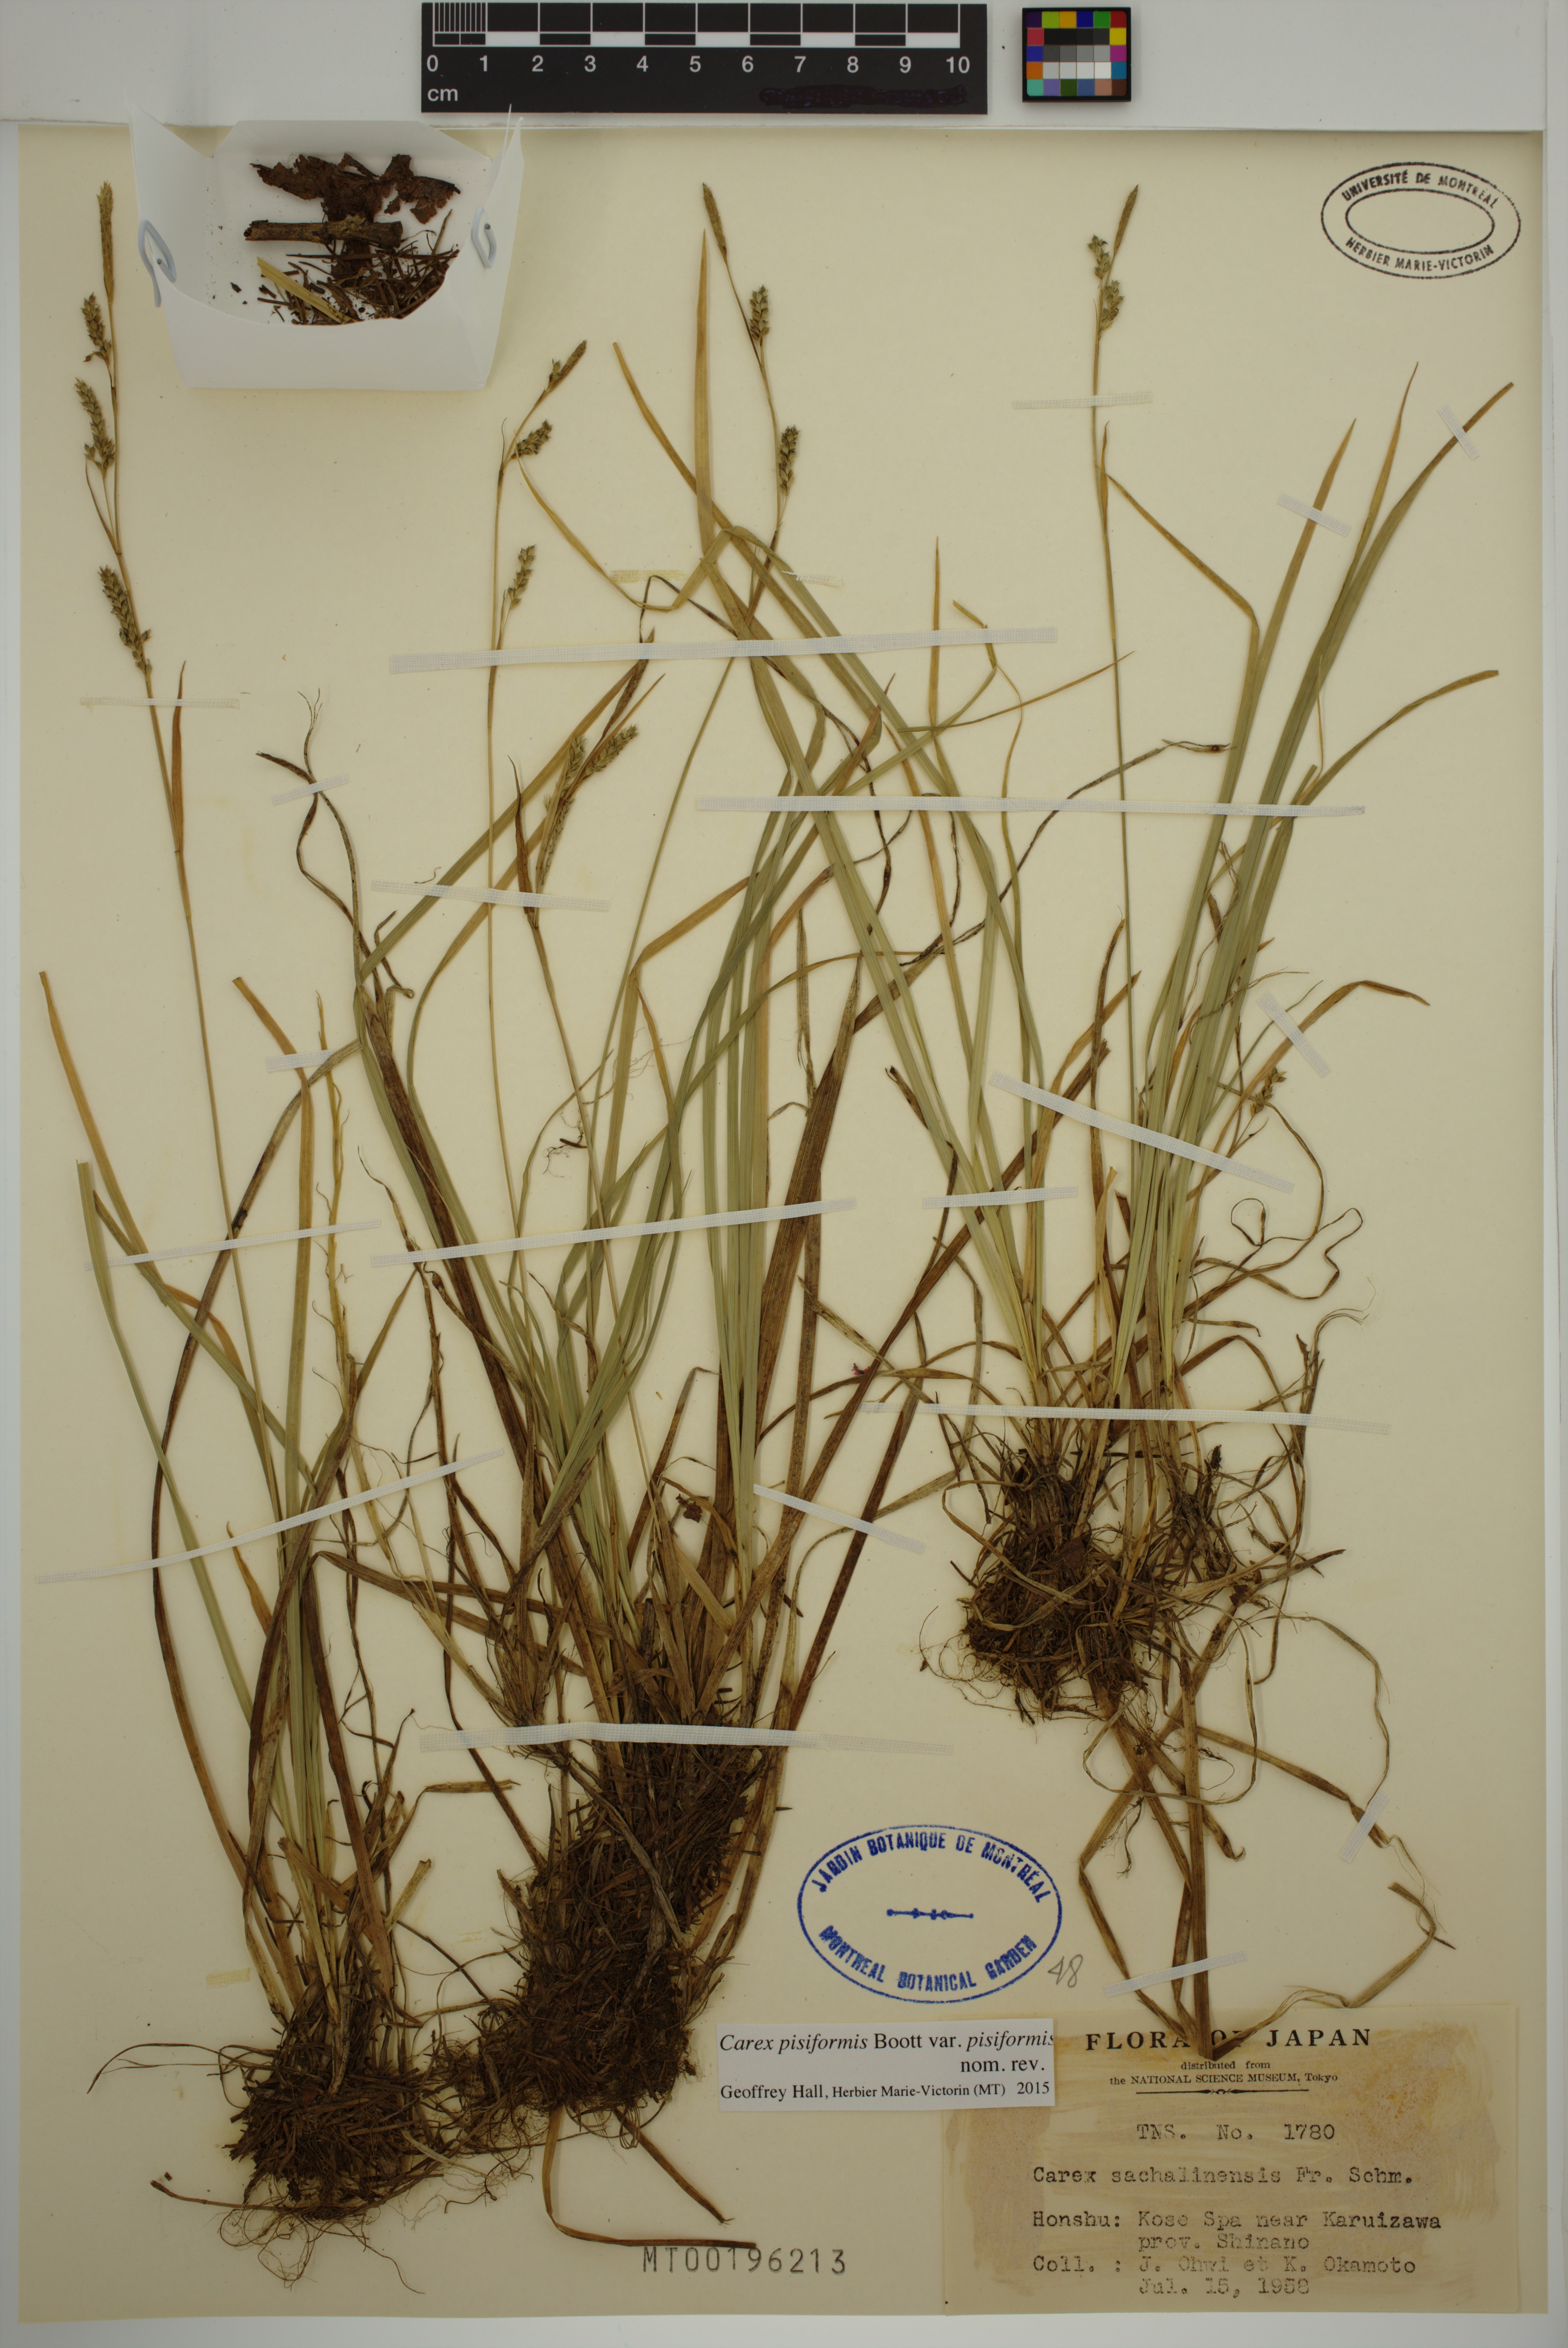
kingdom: Plantae
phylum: Tracheophyta
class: Liliopsida
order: Poales
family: Cyperaceae
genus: Carex
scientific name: Carex pisiformis
